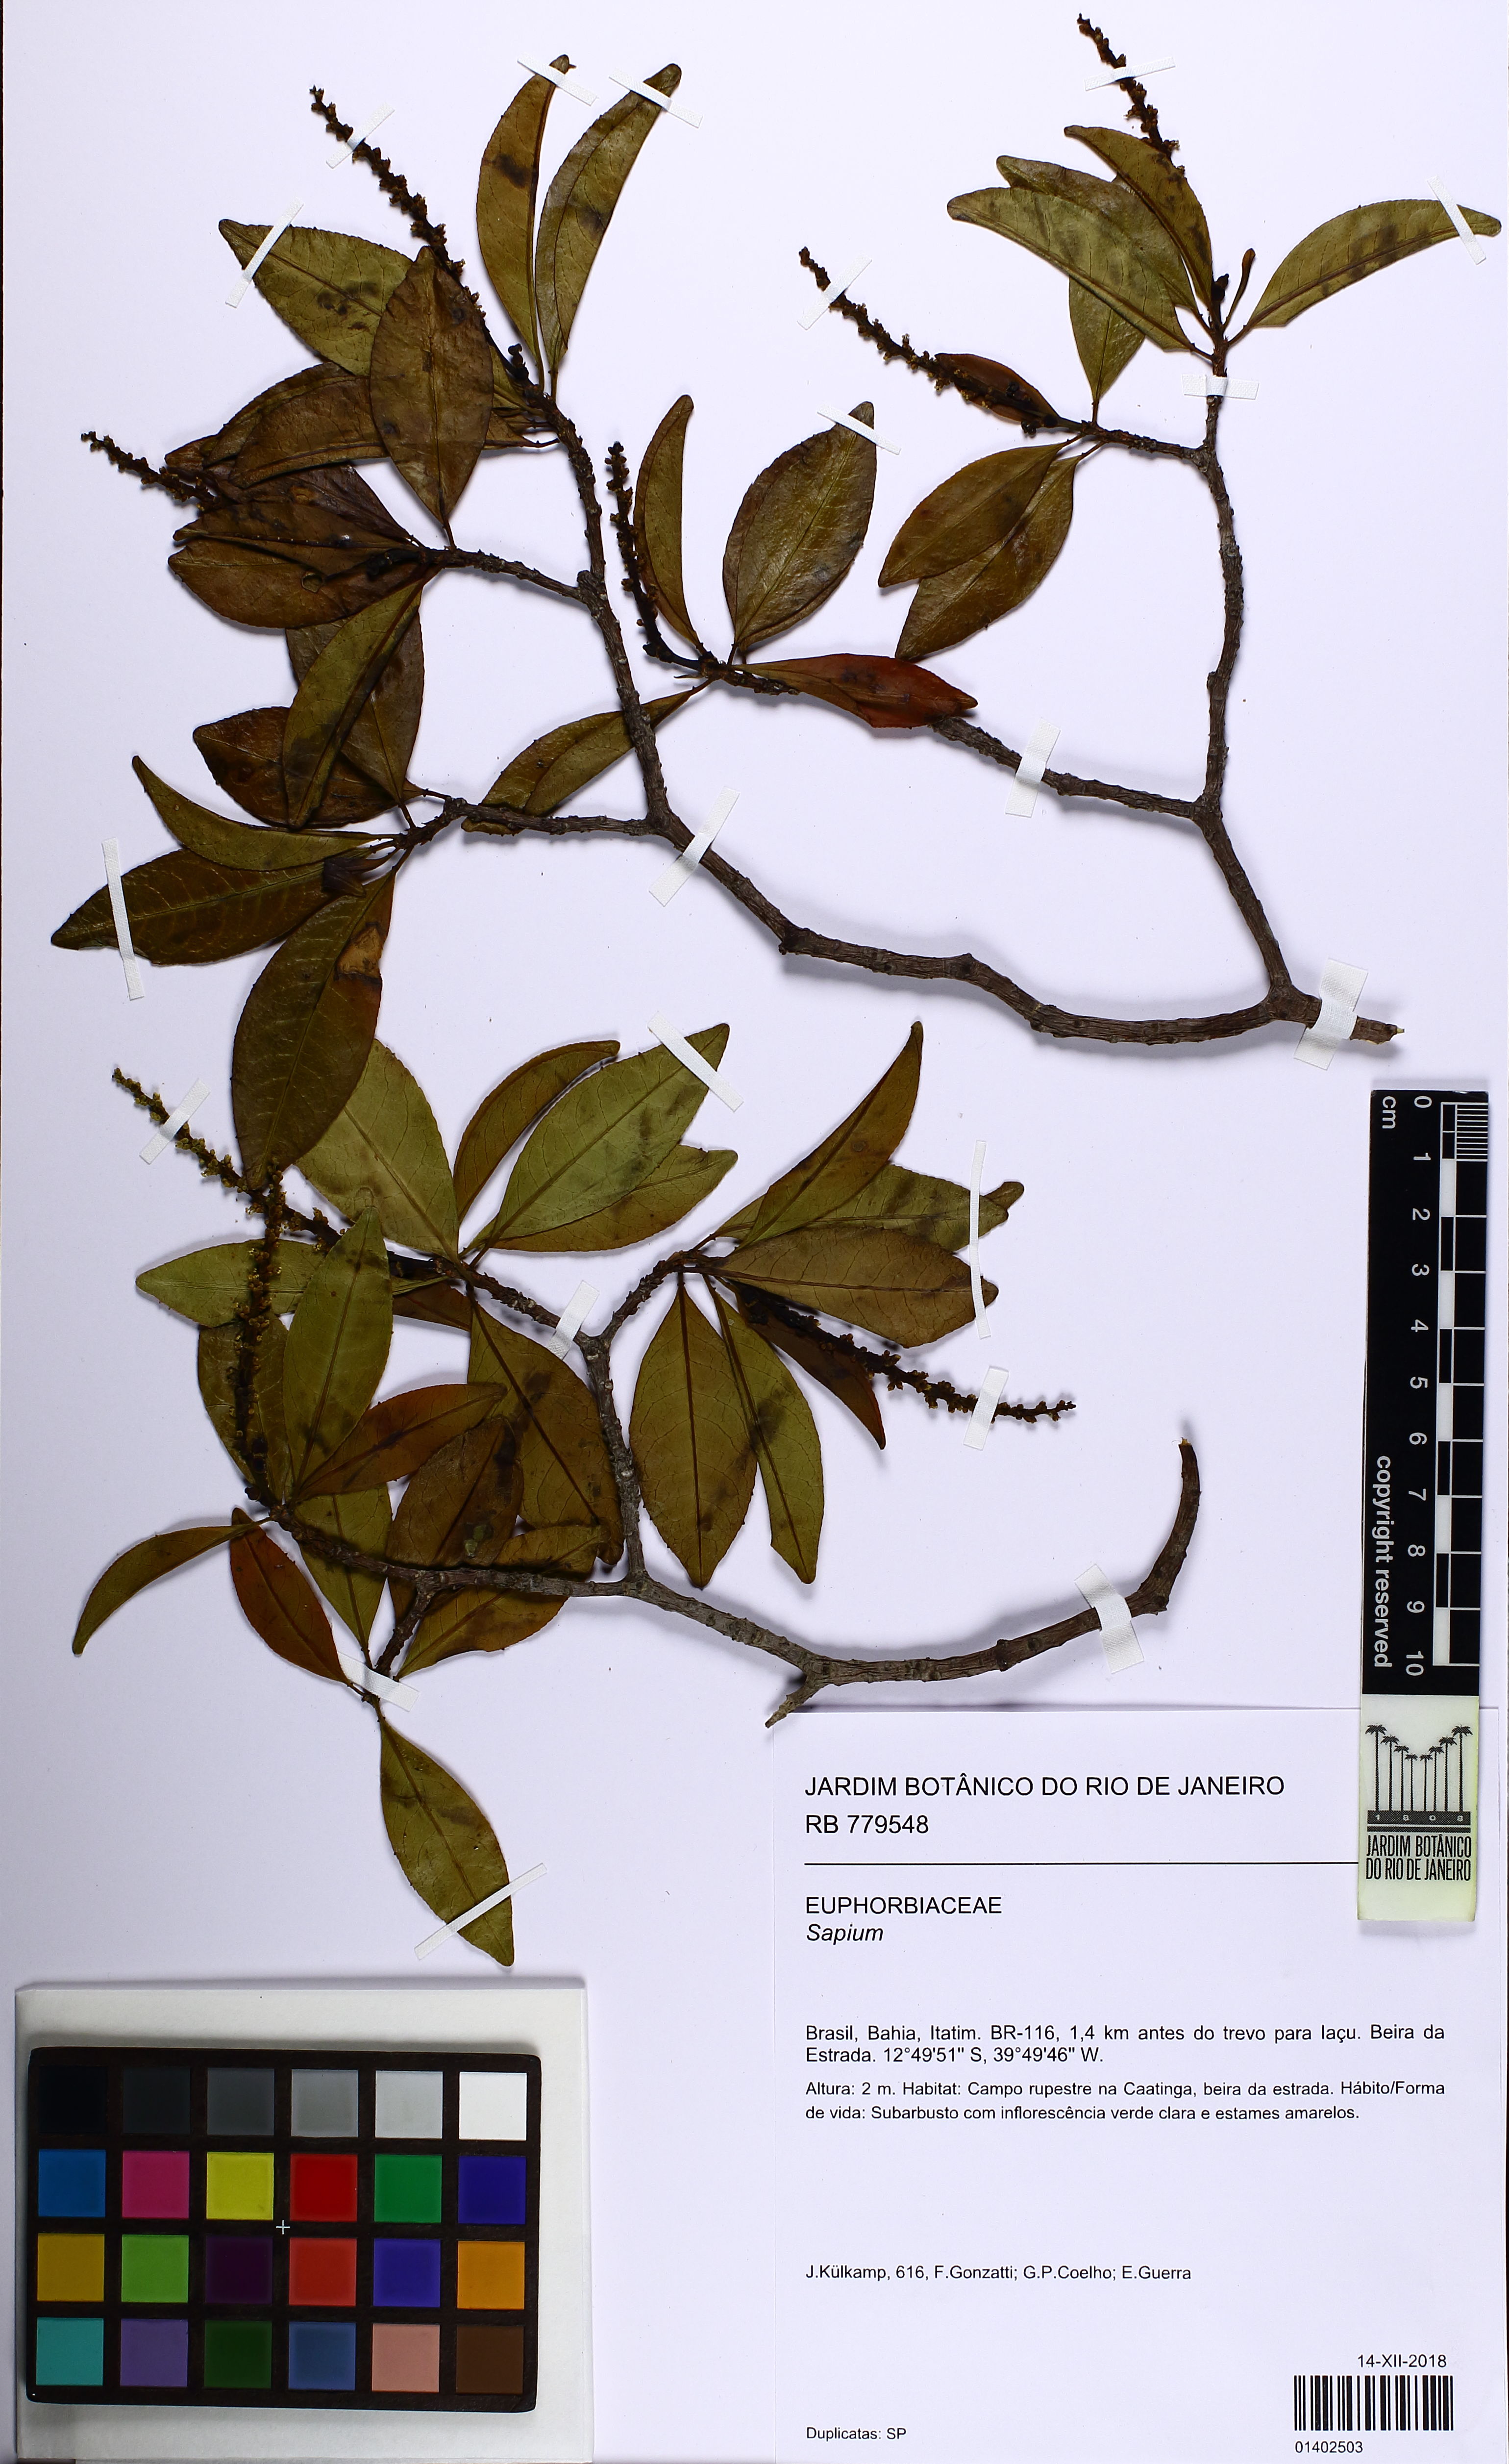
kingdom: Plantae
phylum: Tracheophyta
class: Magnoliopsida
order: Malpighiales
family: Euphorbiaceae
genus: Sapium
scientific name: Sapium
